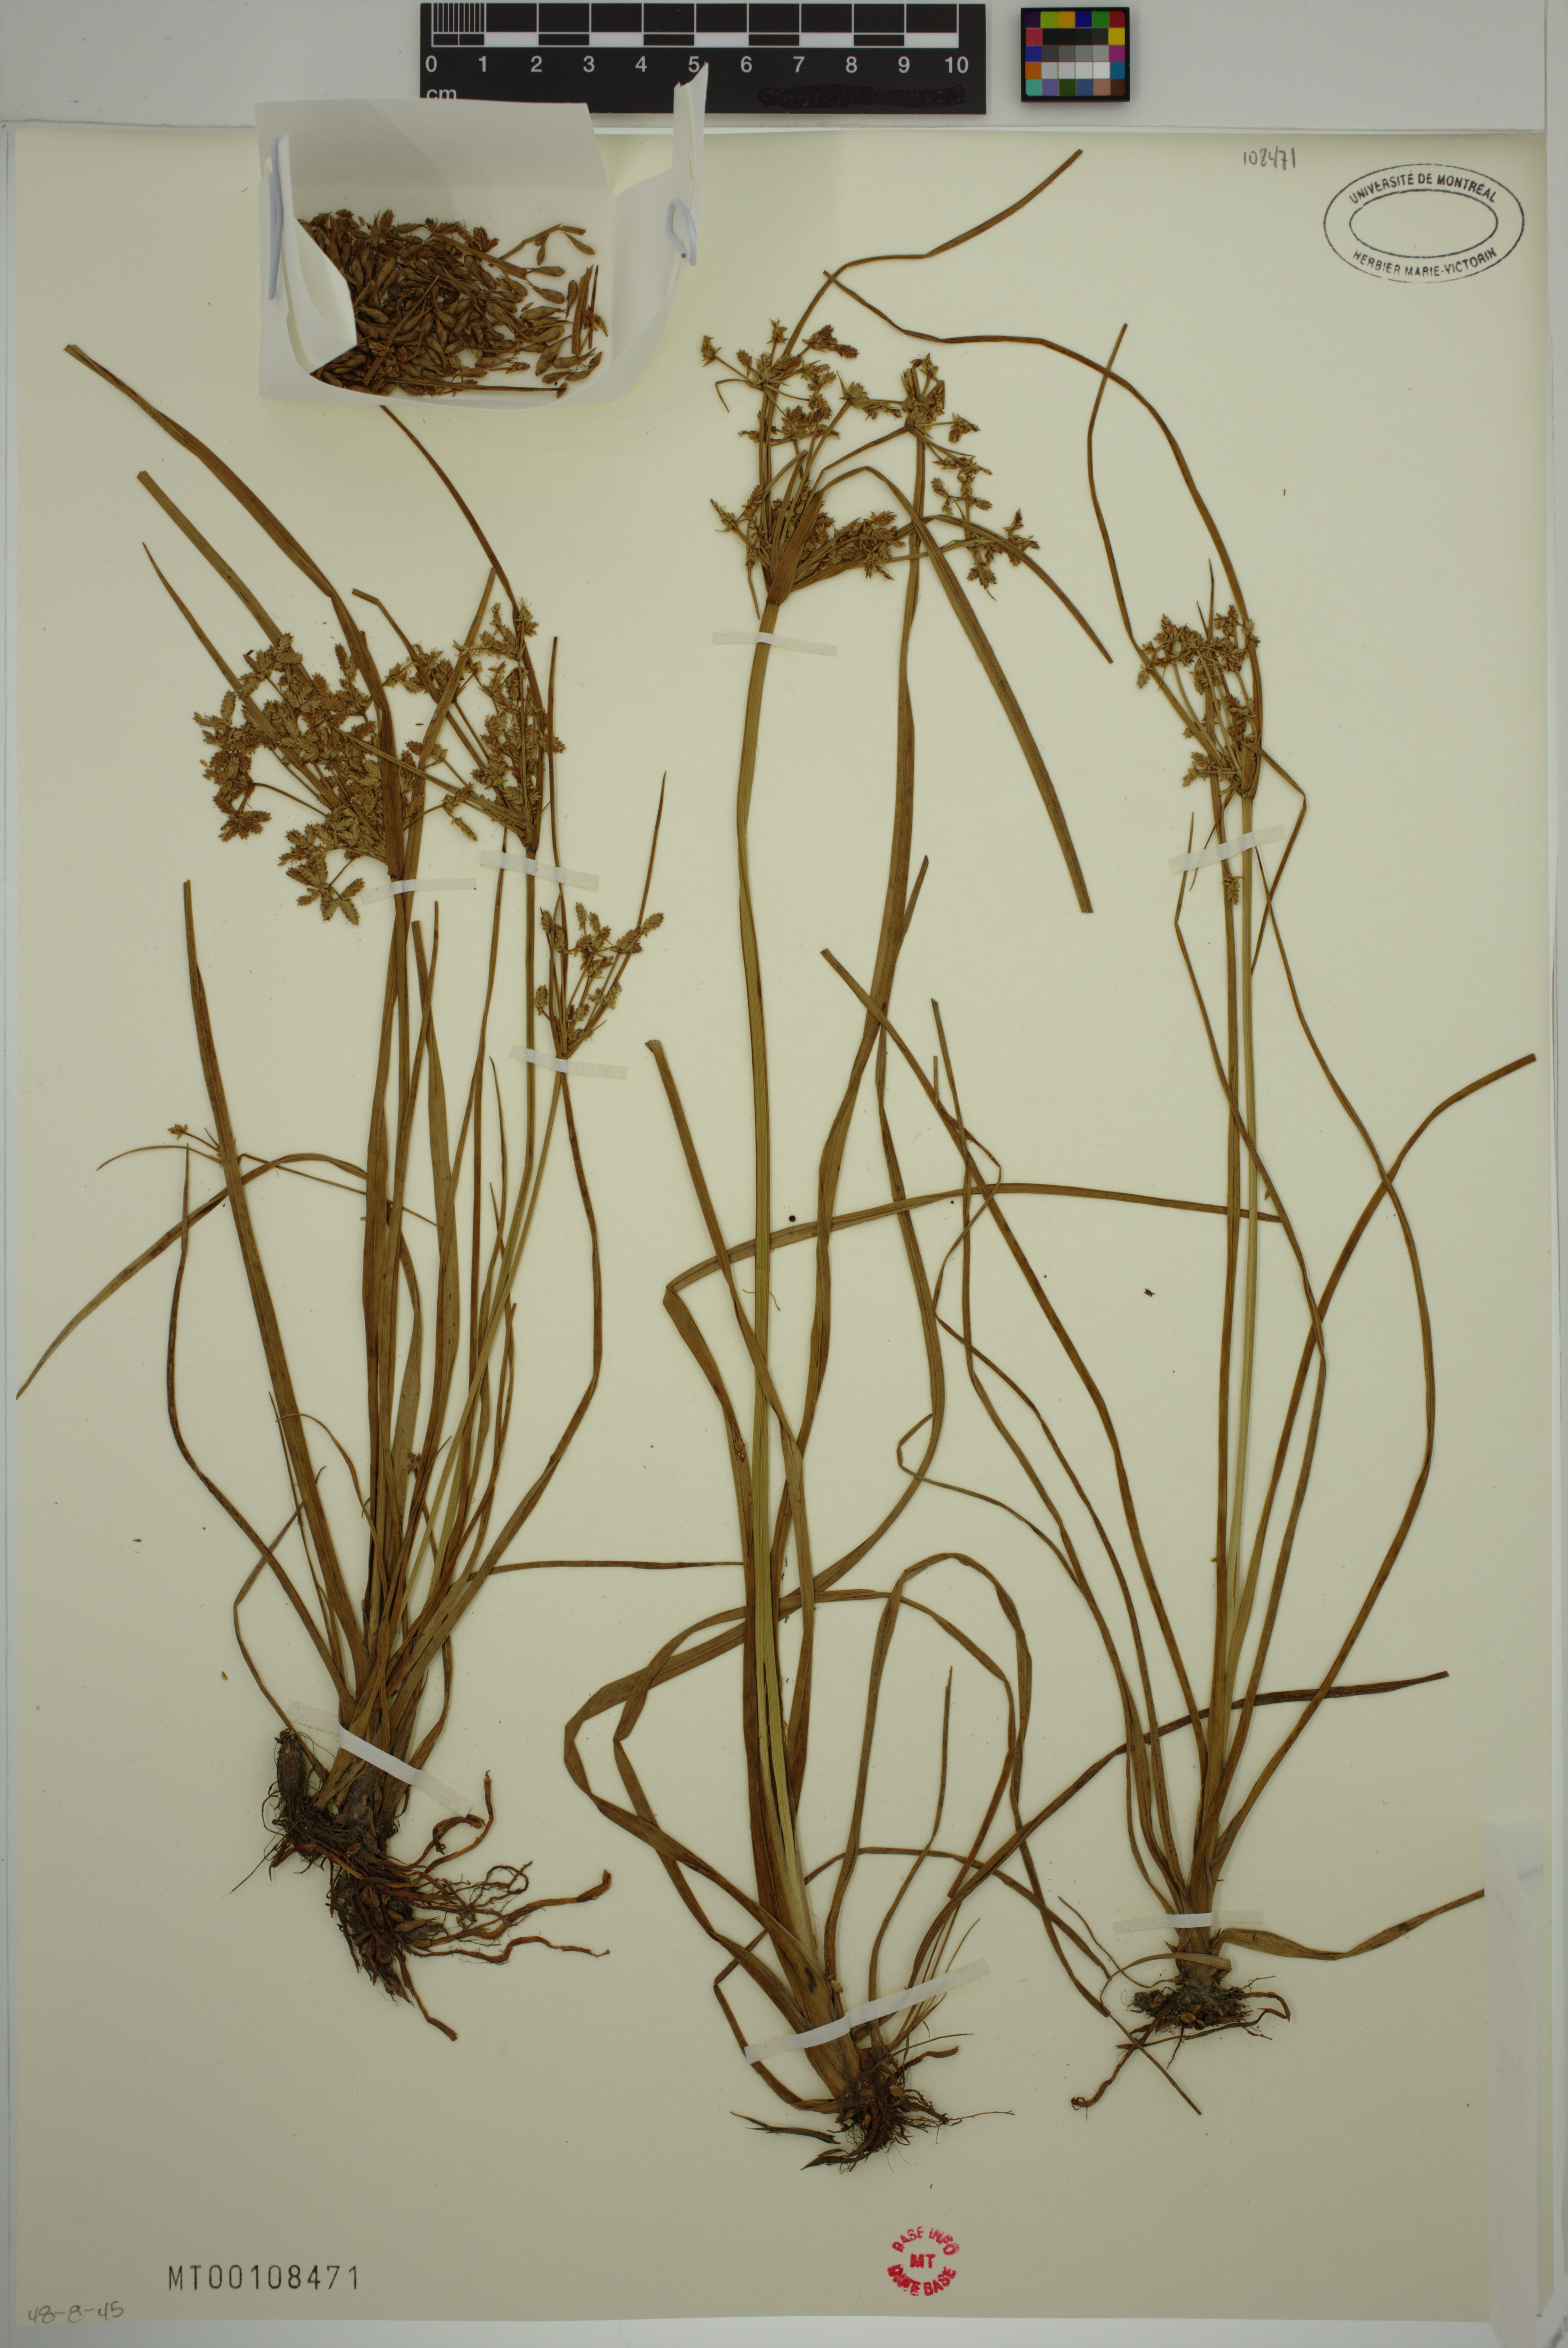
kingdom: Plantae
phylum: Tracheophyta
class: Liliopsida
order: Poales
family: Cyperaceae
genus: Cyperus
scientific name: Cyperus dentatus
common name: Dentate umbrella sedge
